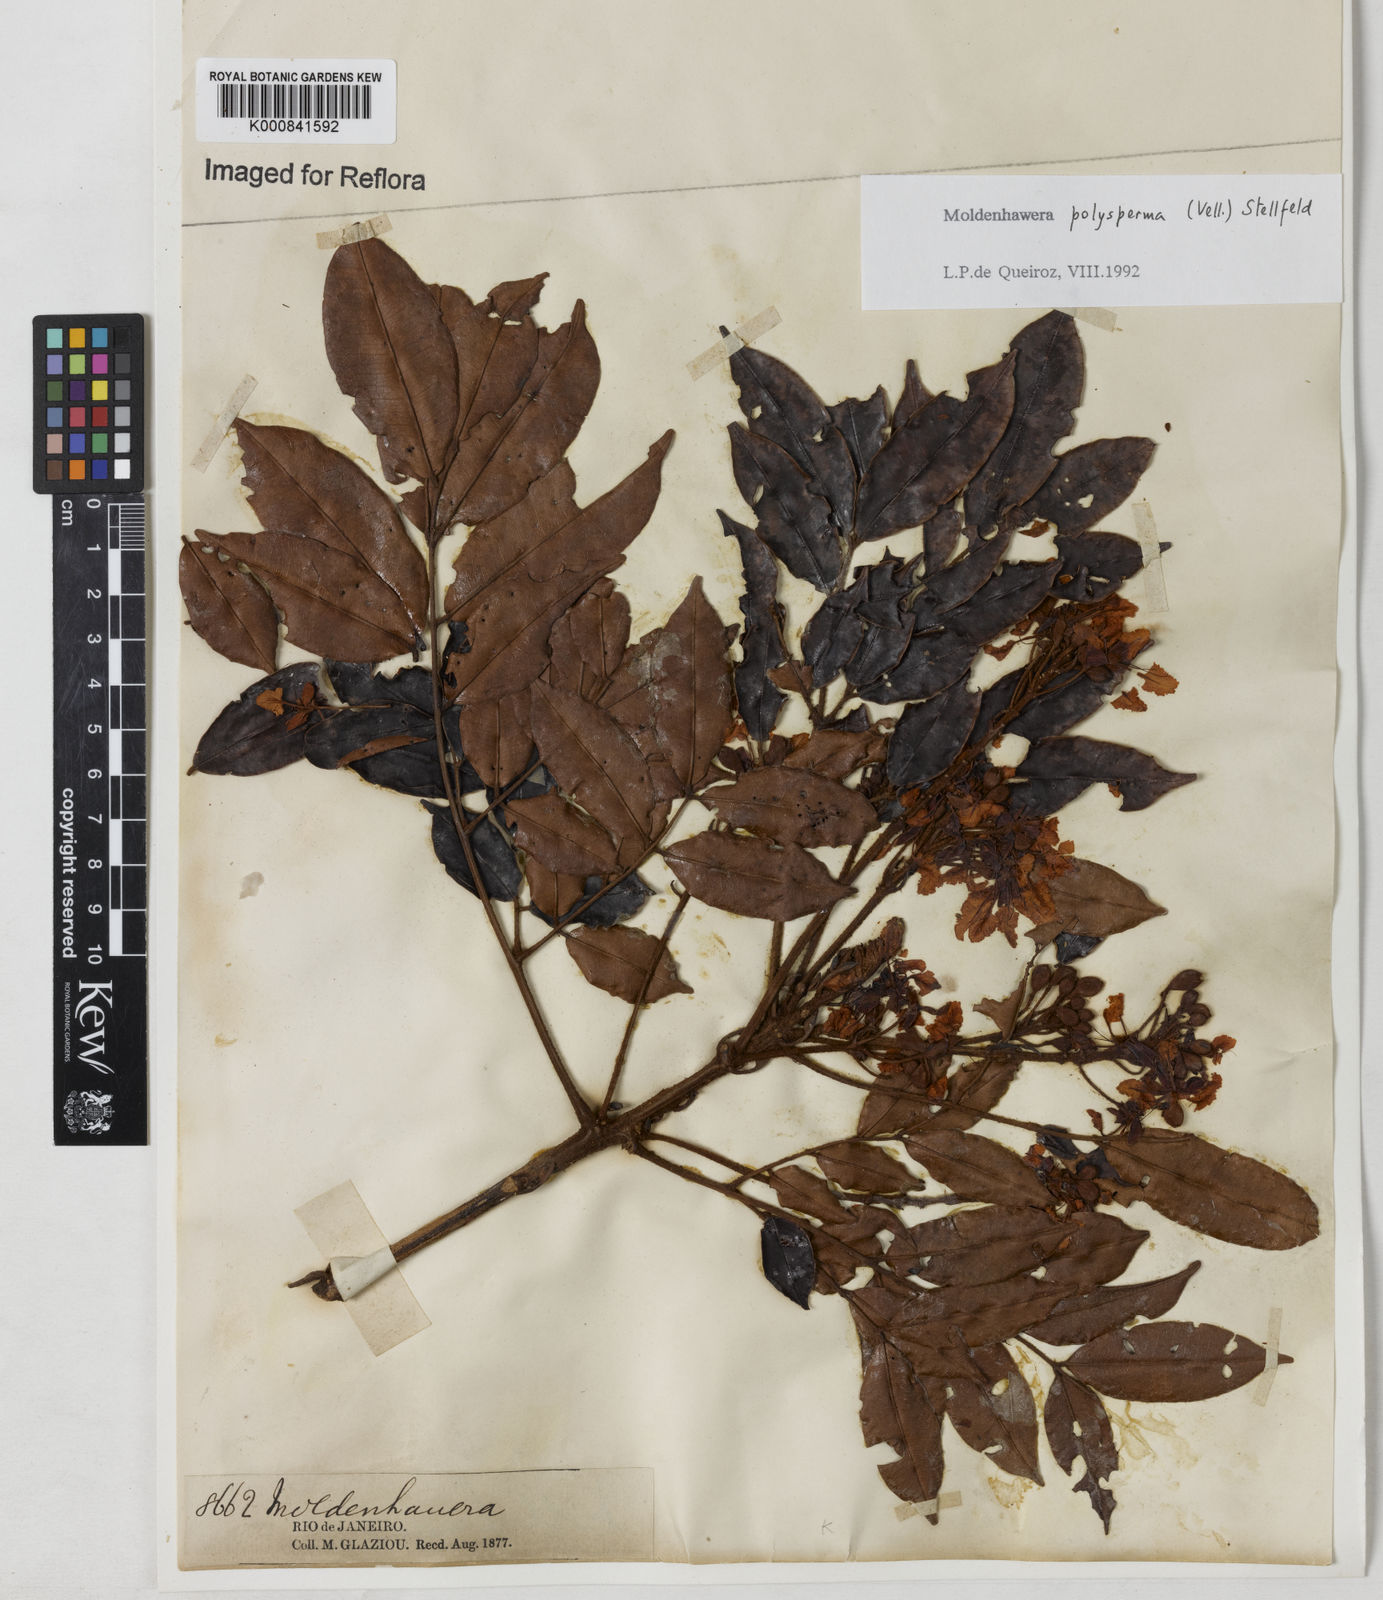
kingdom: Plantae
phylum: Tracheophyta
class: Magnoliopsida
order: Fabales
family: Fabaceae
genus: Moldenhawera
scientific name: Moldenhawera polysperma
